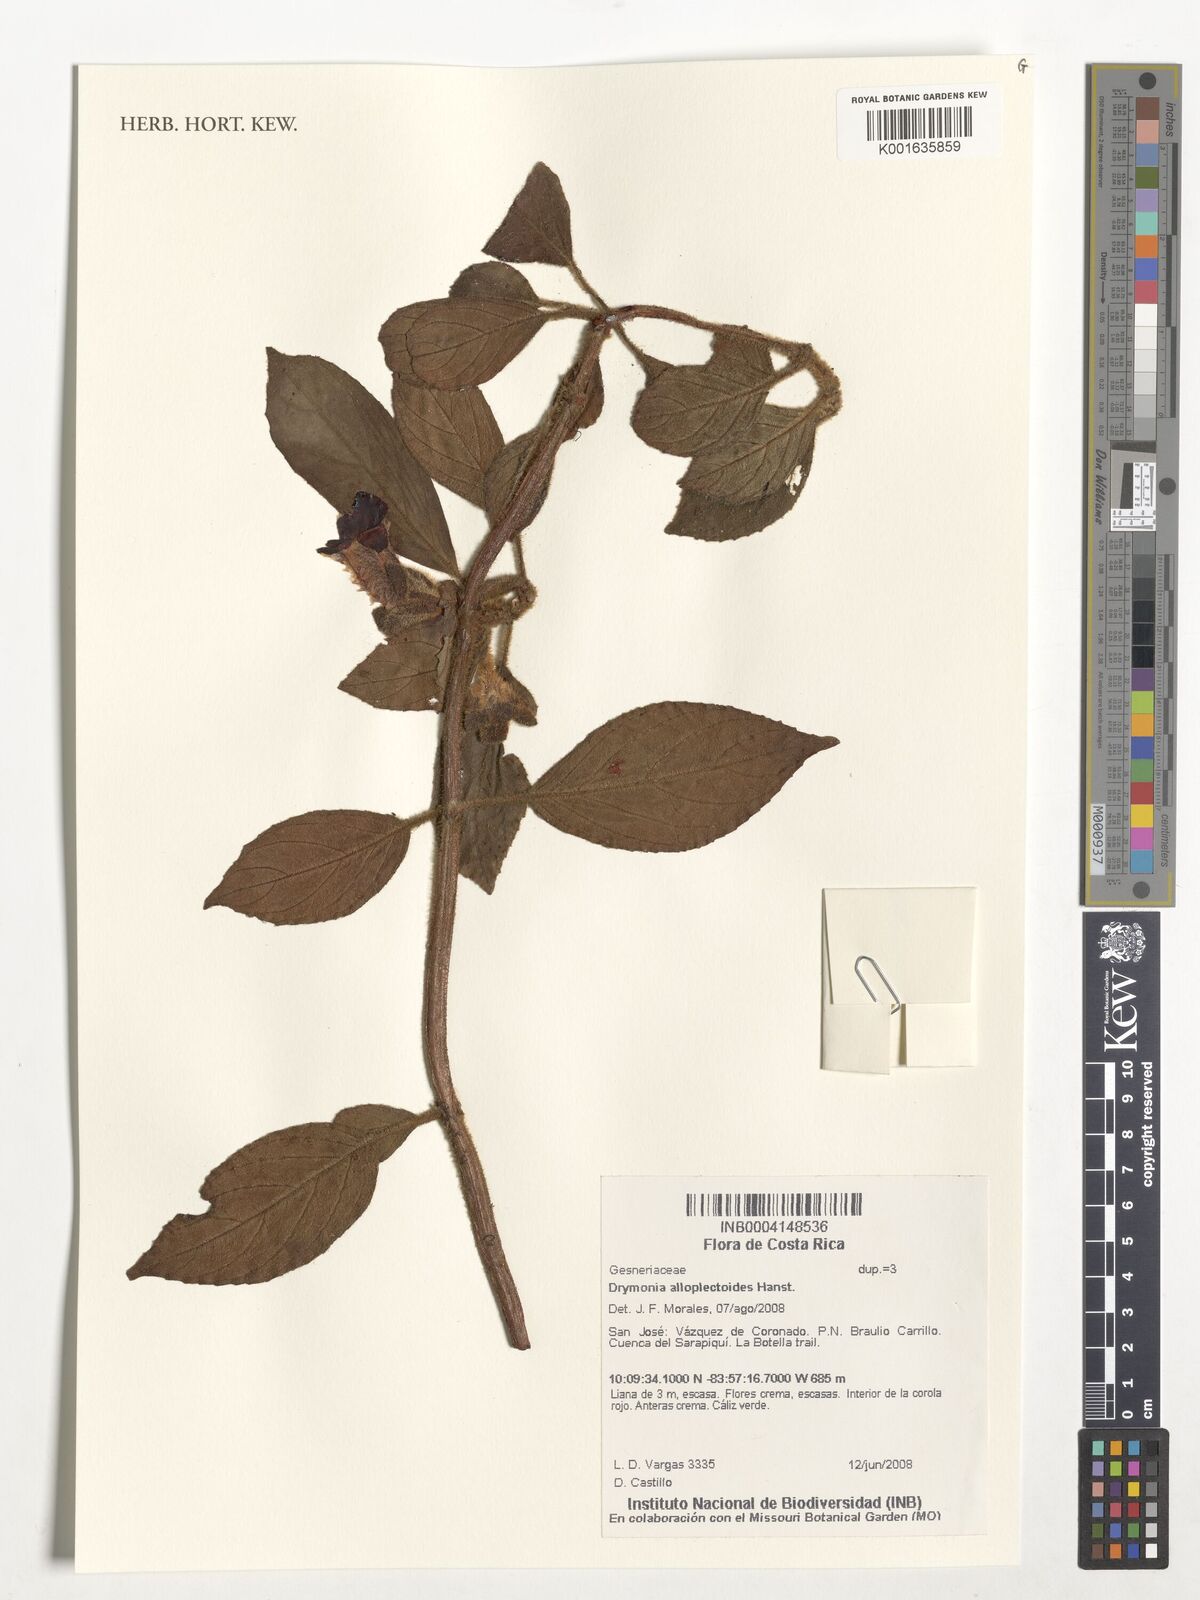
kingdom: Plantae
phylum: Tracheophyta
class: Magnoliopsida
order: Lamiales
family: Gesneriaceae
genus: Drymonia
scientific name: Drymonia alloplectoides
